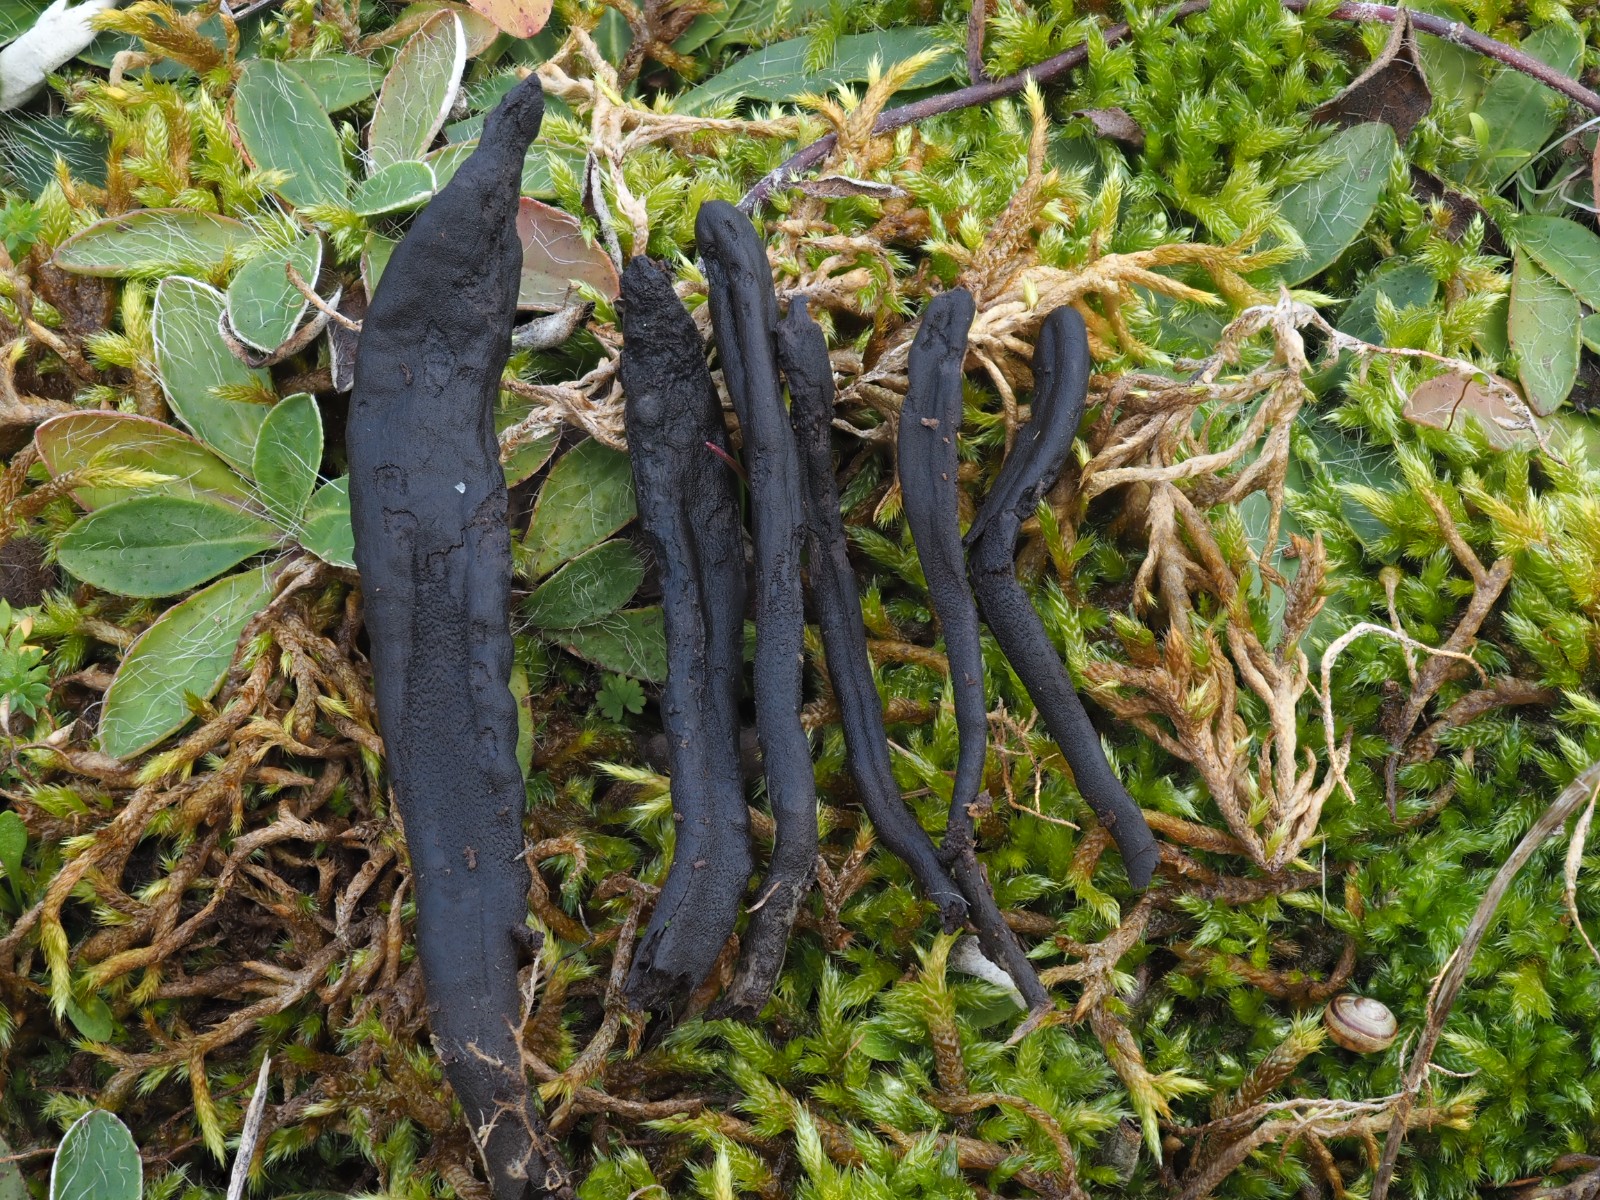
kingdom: Fungi
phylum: Ascomycota
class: Geoglossomycetes
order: Geoglossales
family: Geoglossaceae
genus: Geoglossum
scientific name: Geoglossum cookeianum
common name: bred jordtunge
